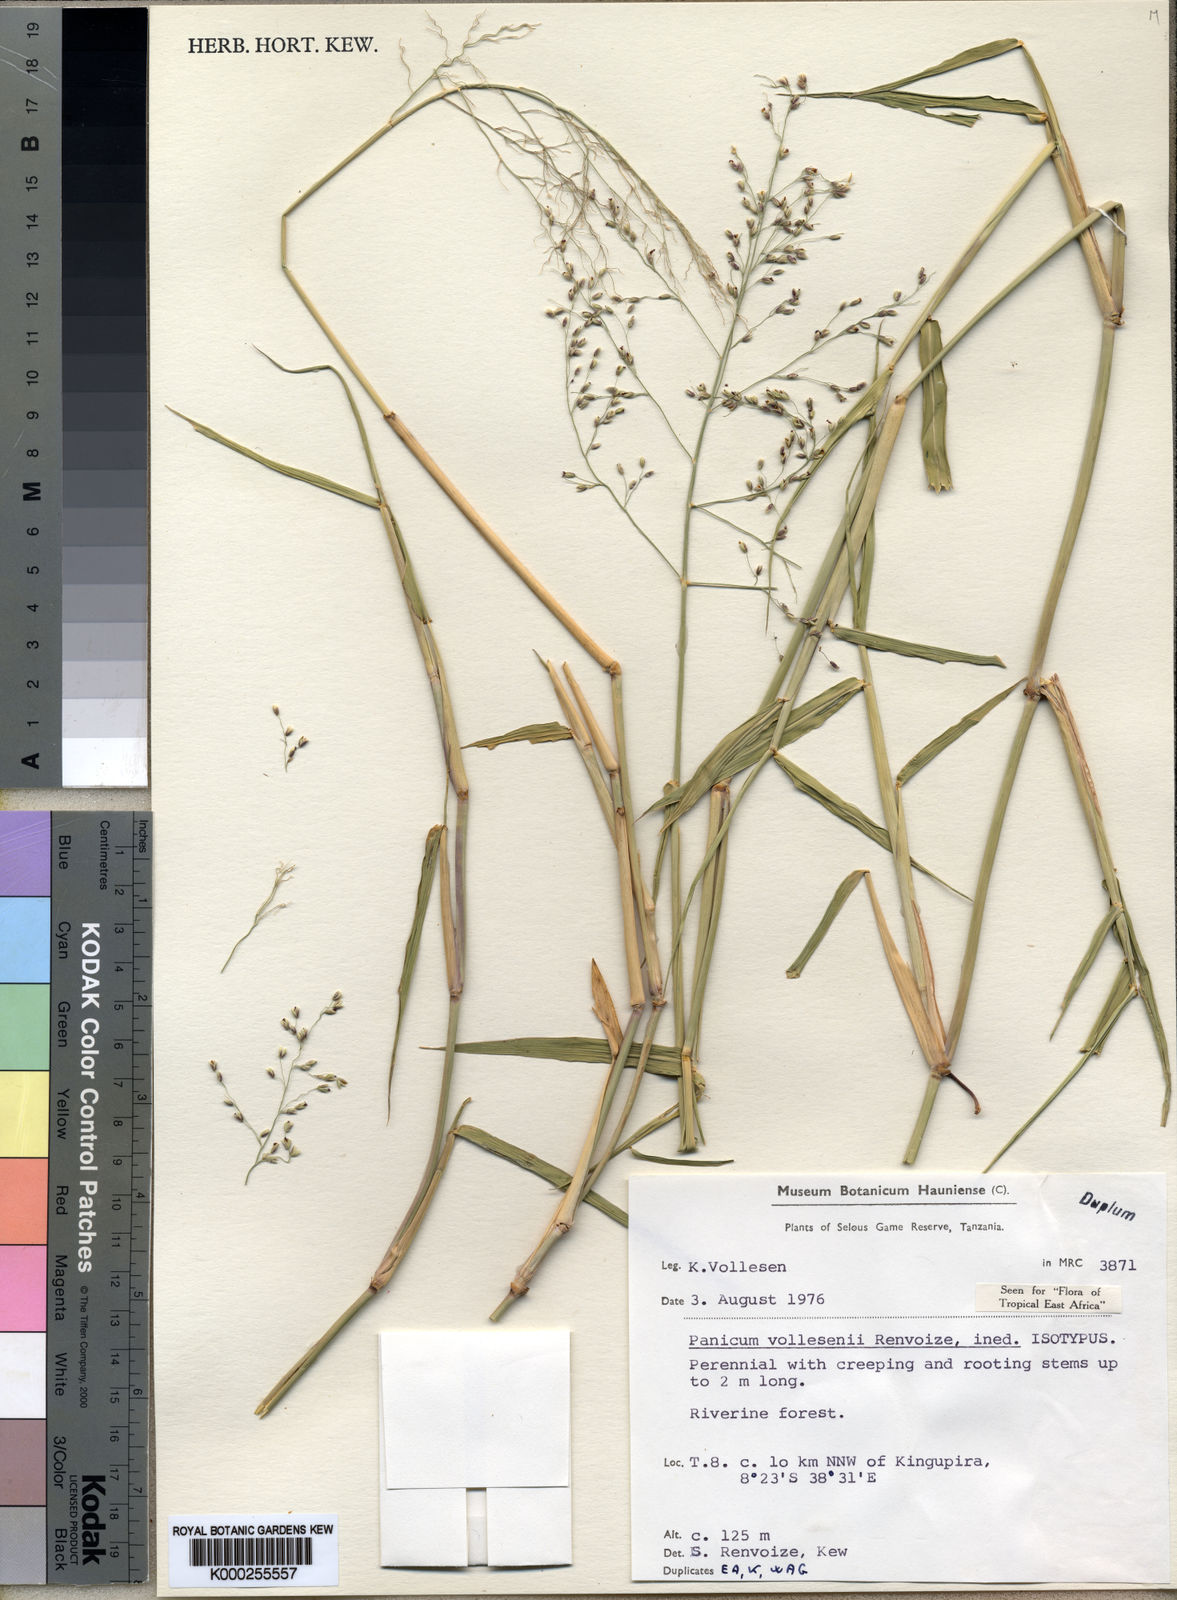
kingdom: Plantae
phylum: Tracheophyta
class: Liliopsida
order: Poales
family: Poaceae
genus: Panicum
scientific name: Panicum vollesenii
